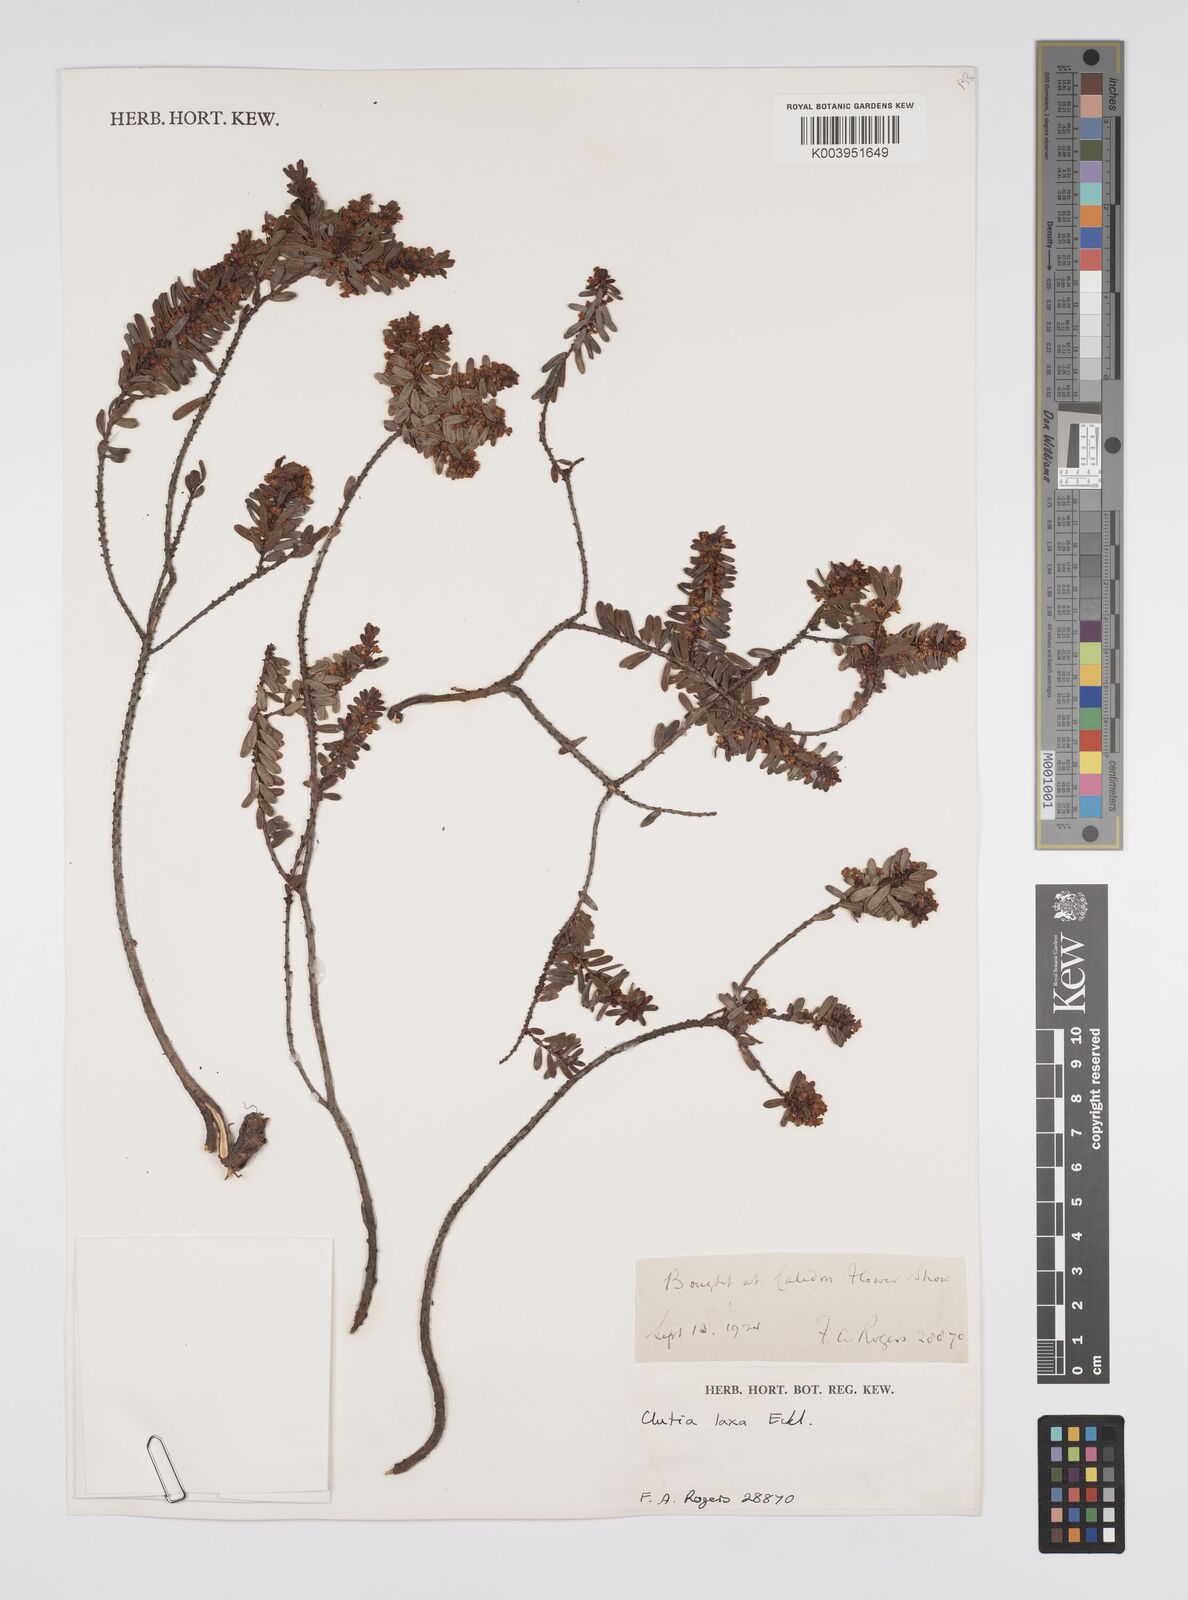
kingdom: Plantae
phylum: Tracheophyta
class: Magnoliopsida
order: Malpighiales
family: Peraceae
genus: Clutia
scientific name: Clutia laxa
